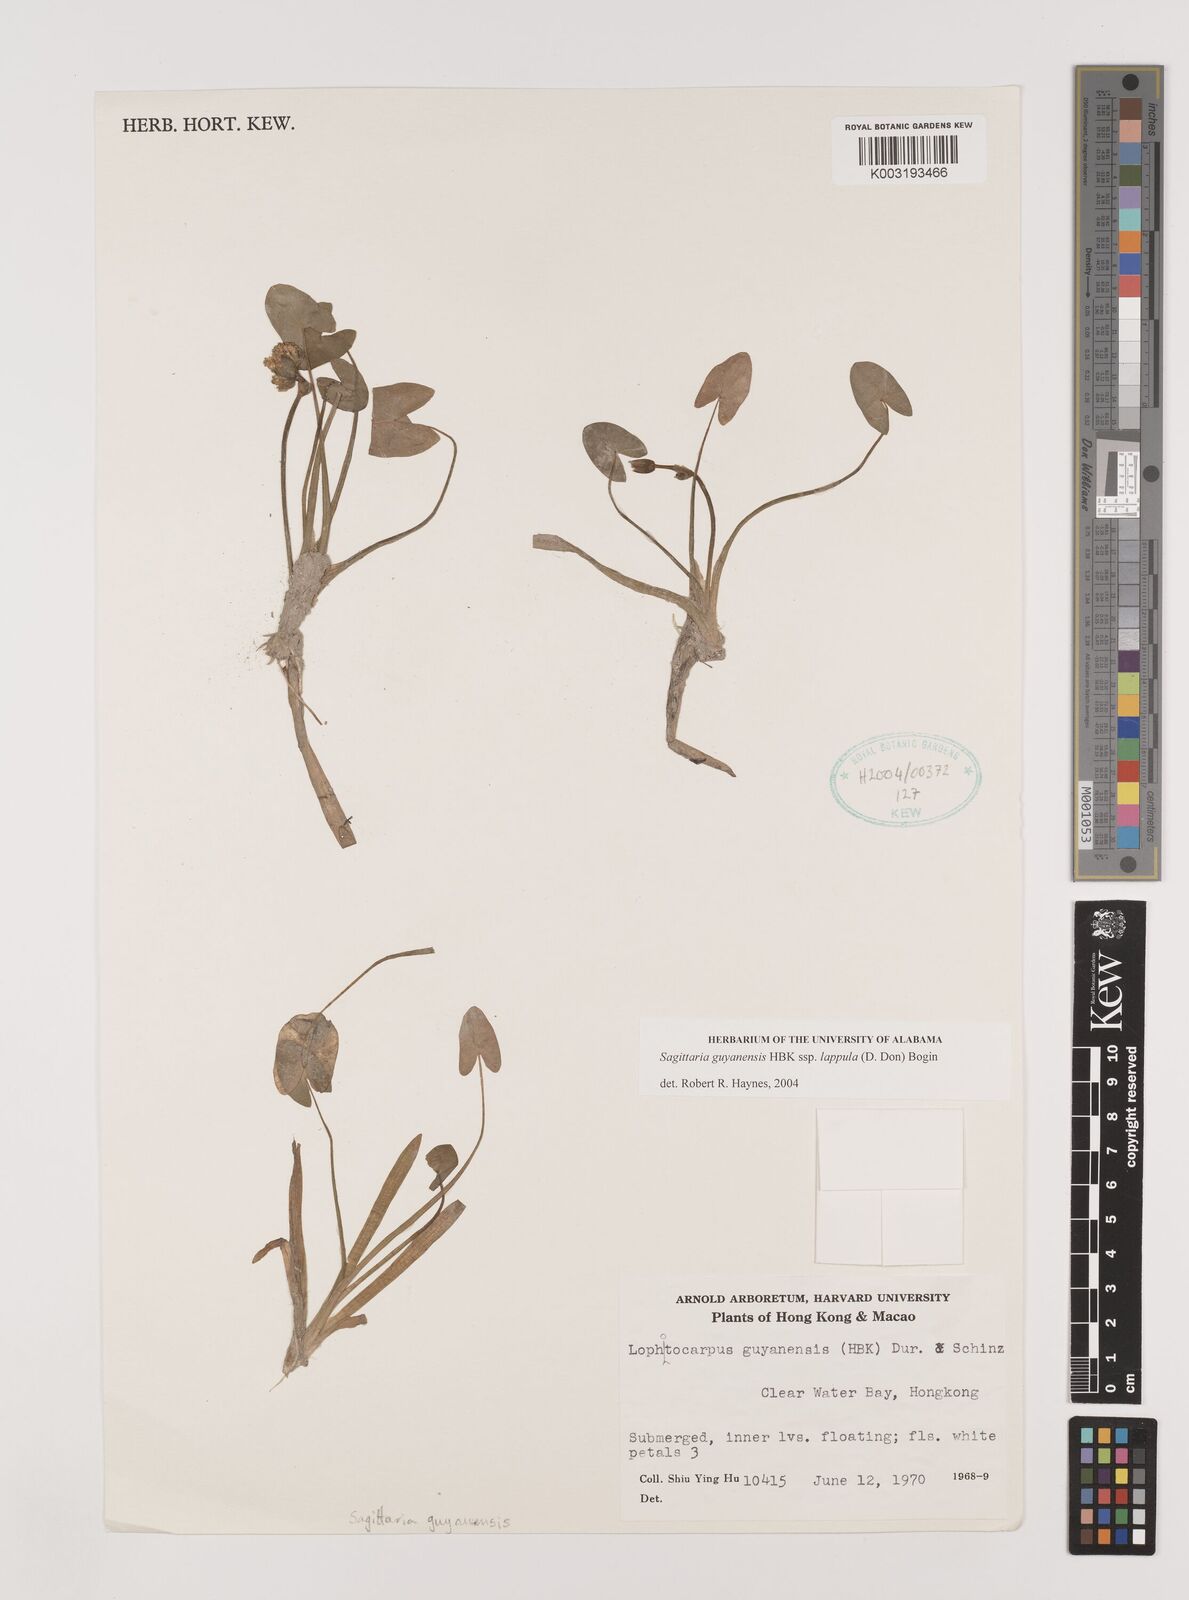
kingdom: Plantae
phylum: Tracheophyta
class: Liliopsida
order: Alismatales
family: Alismataceae
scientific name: Alismataceae
